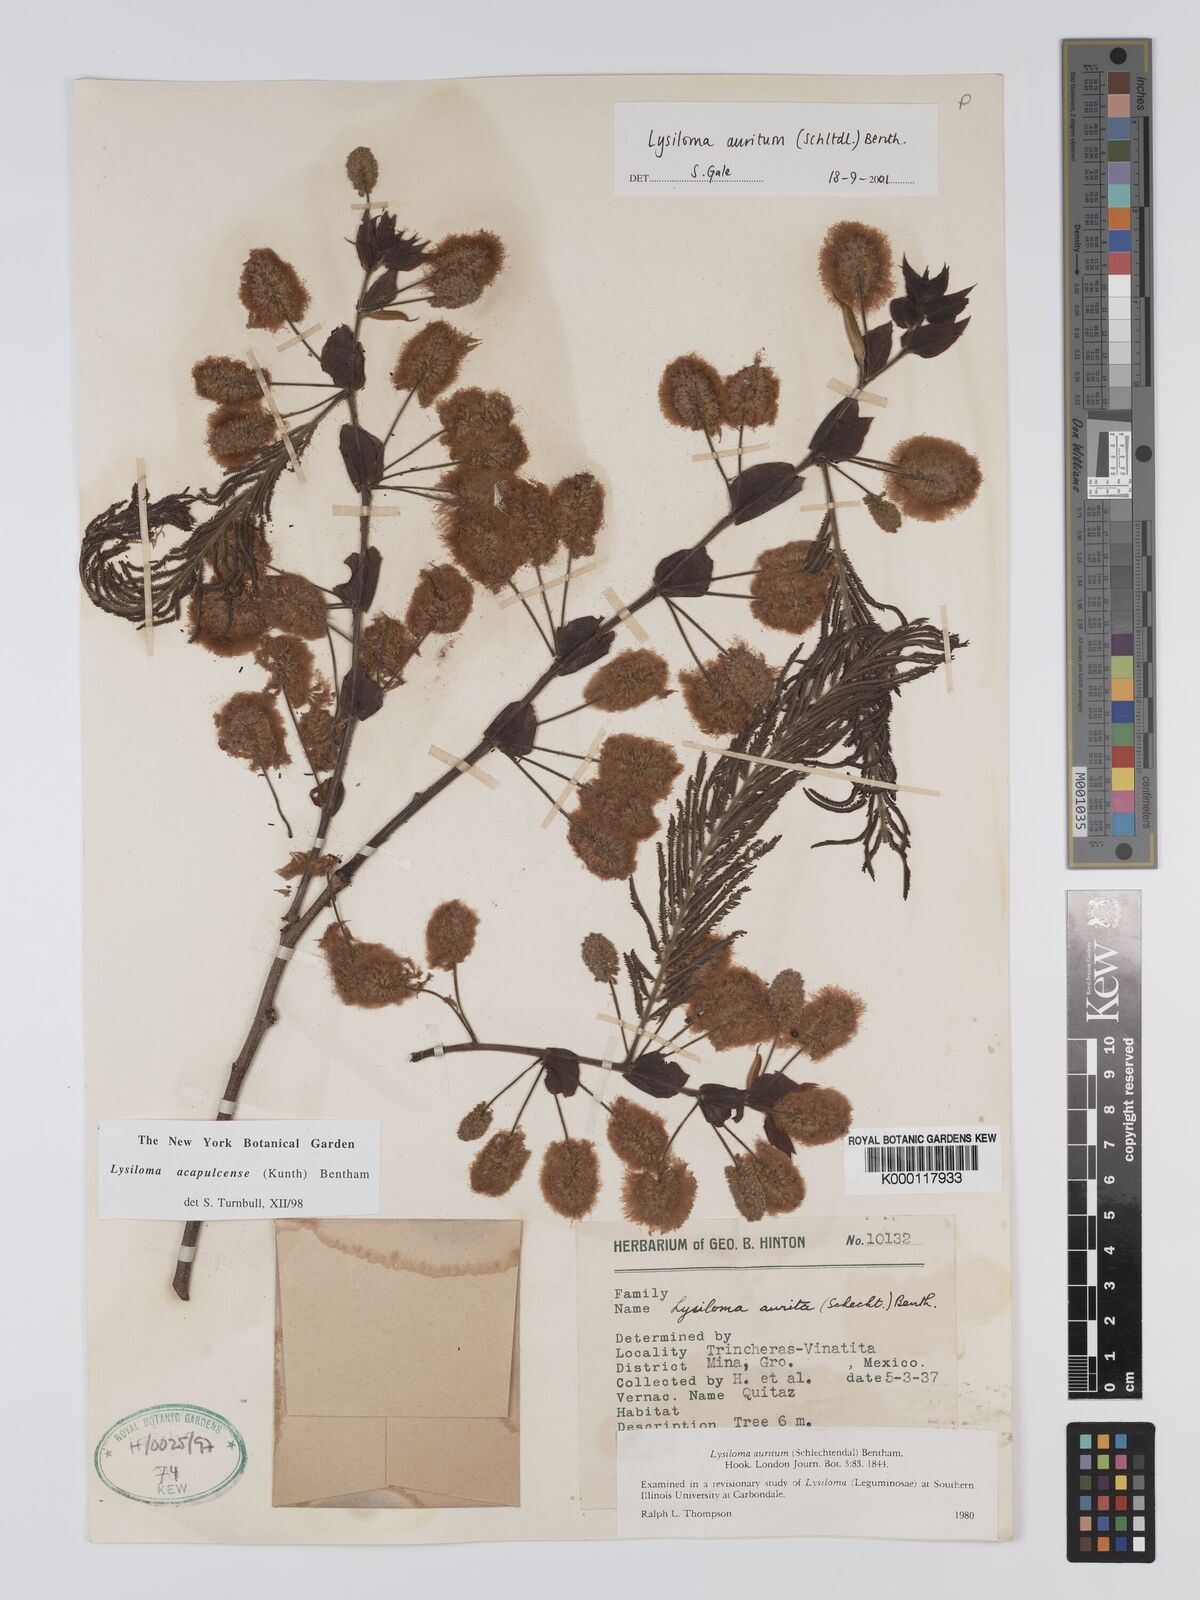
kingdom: Plantae
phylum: Tracheophyta
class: Magnoliopsida
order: Fabales
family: Fabaceae
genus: Lysiloma
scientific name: Lysiloma auritum
